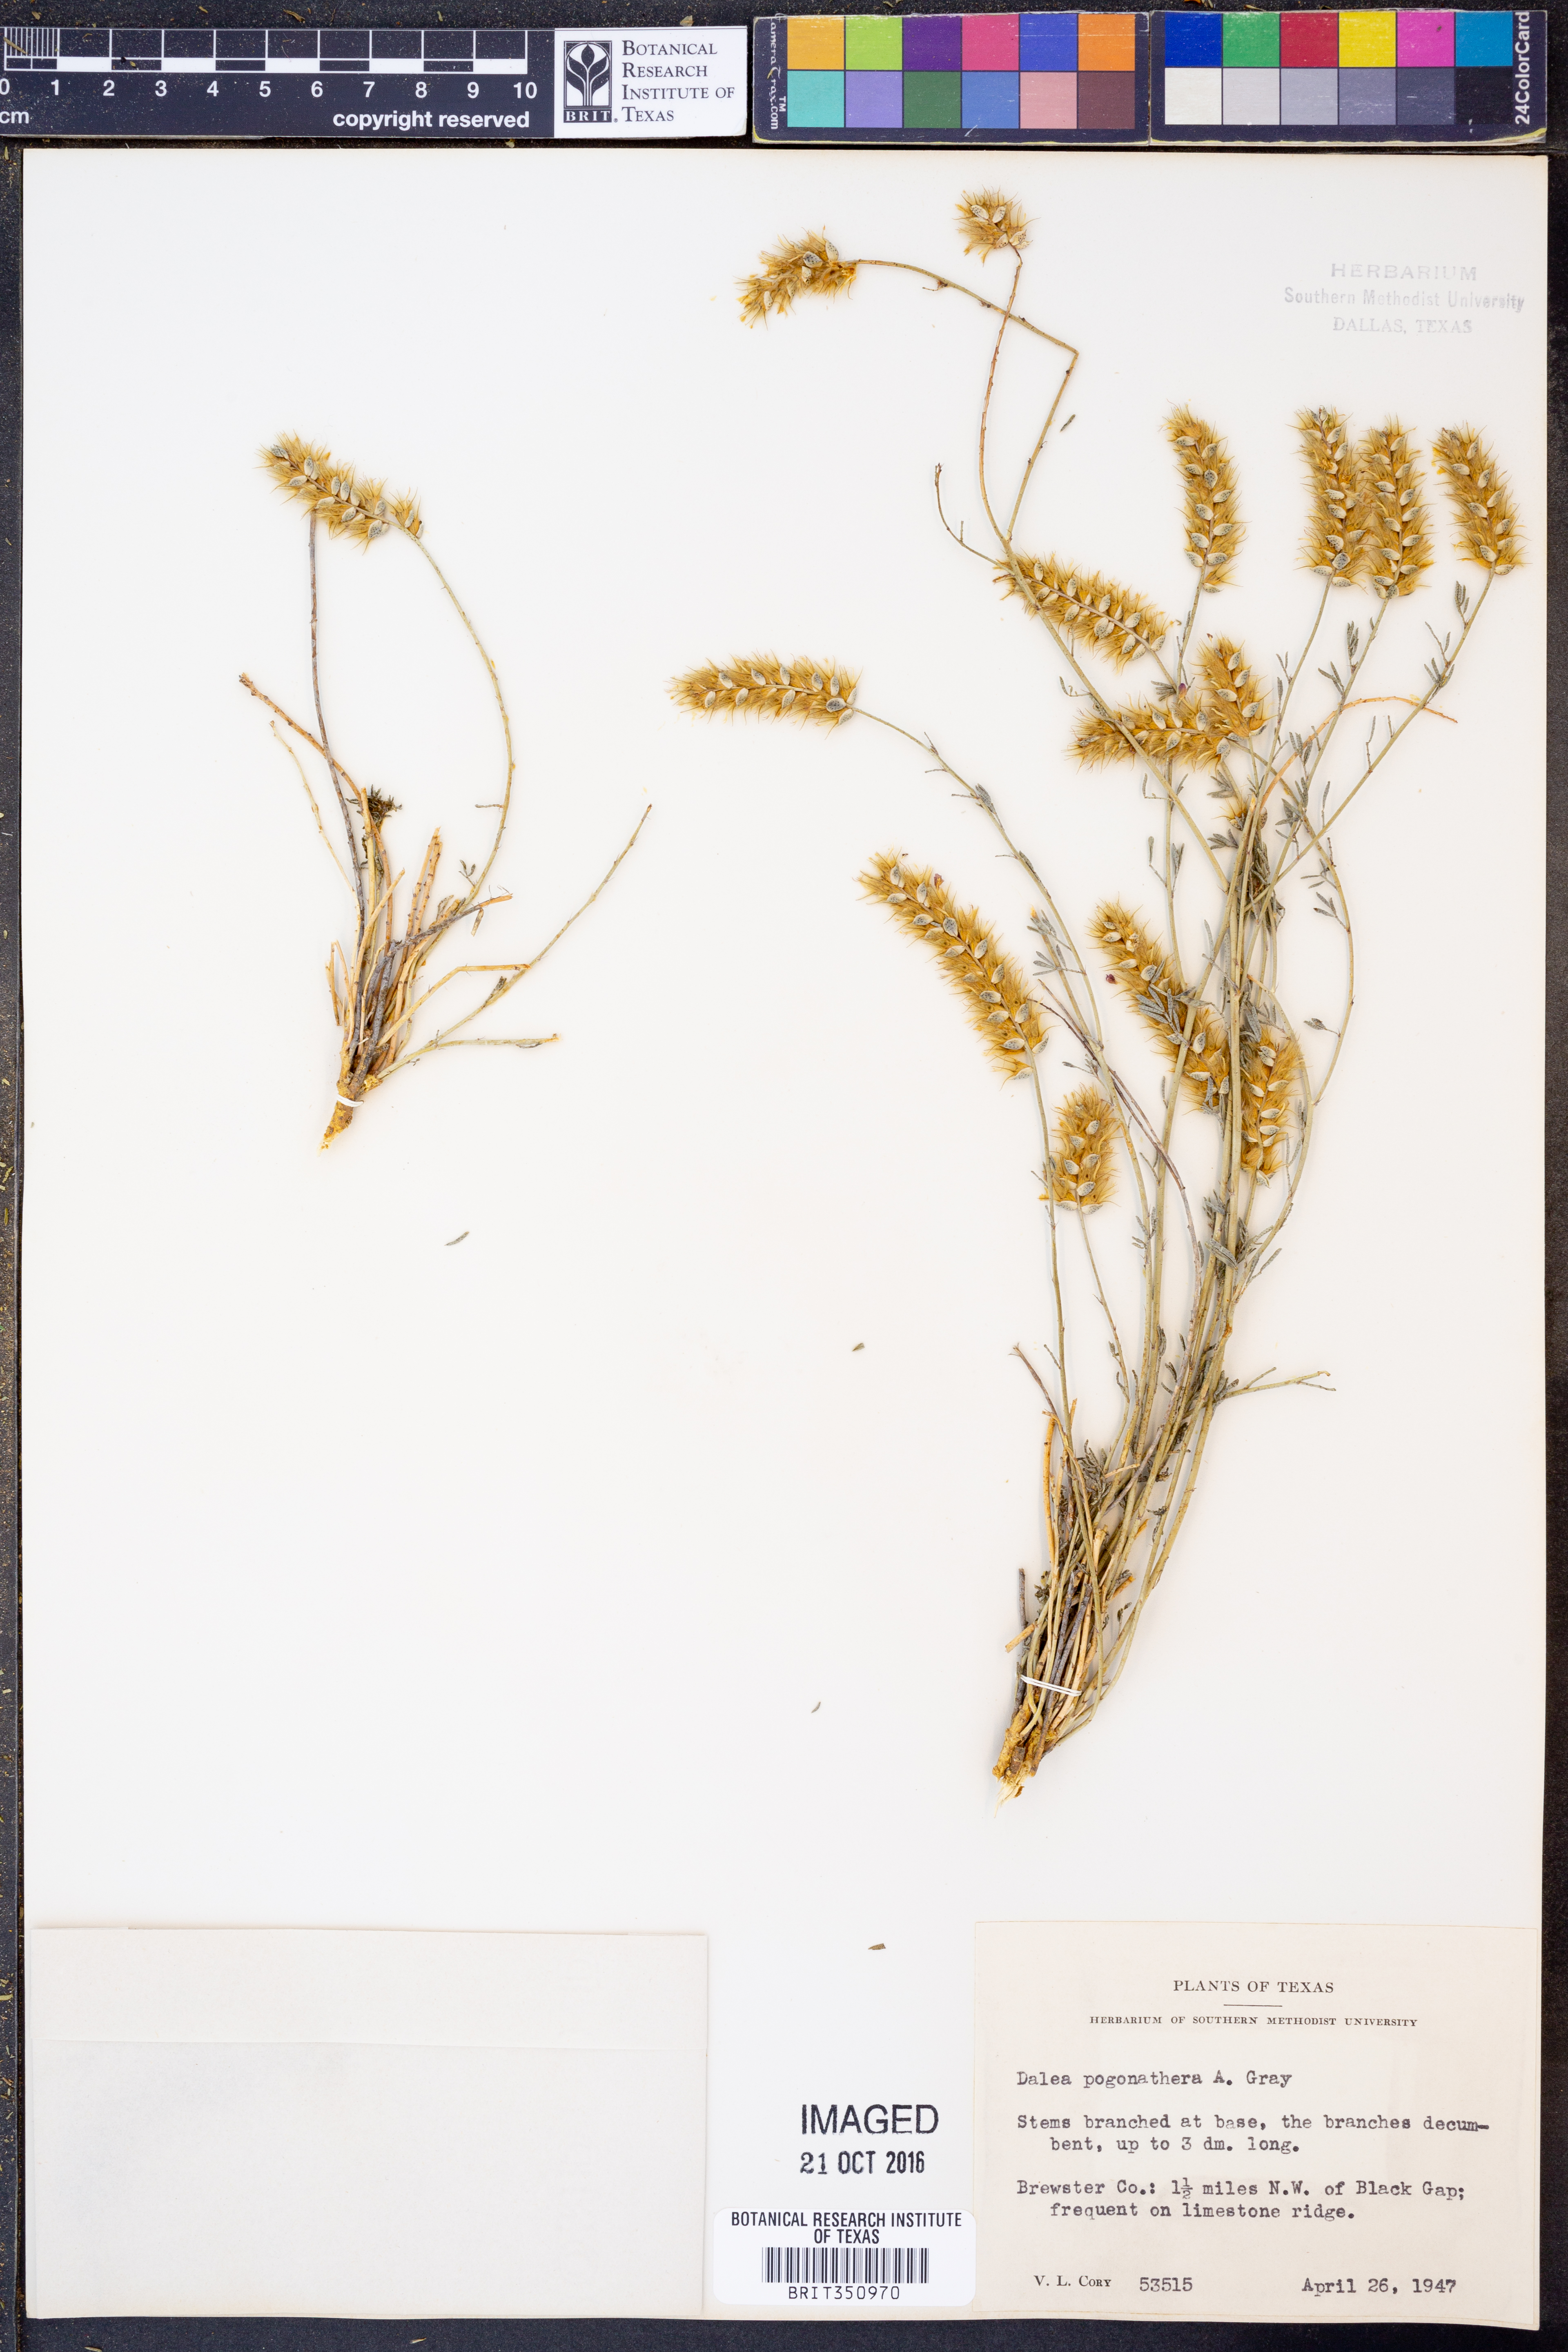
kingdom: Plantae
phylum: Tracheophyta
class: Magnoliopsida
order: Fabales
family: Fabaceae
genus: Dalea
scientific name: Dalea pogonathera
